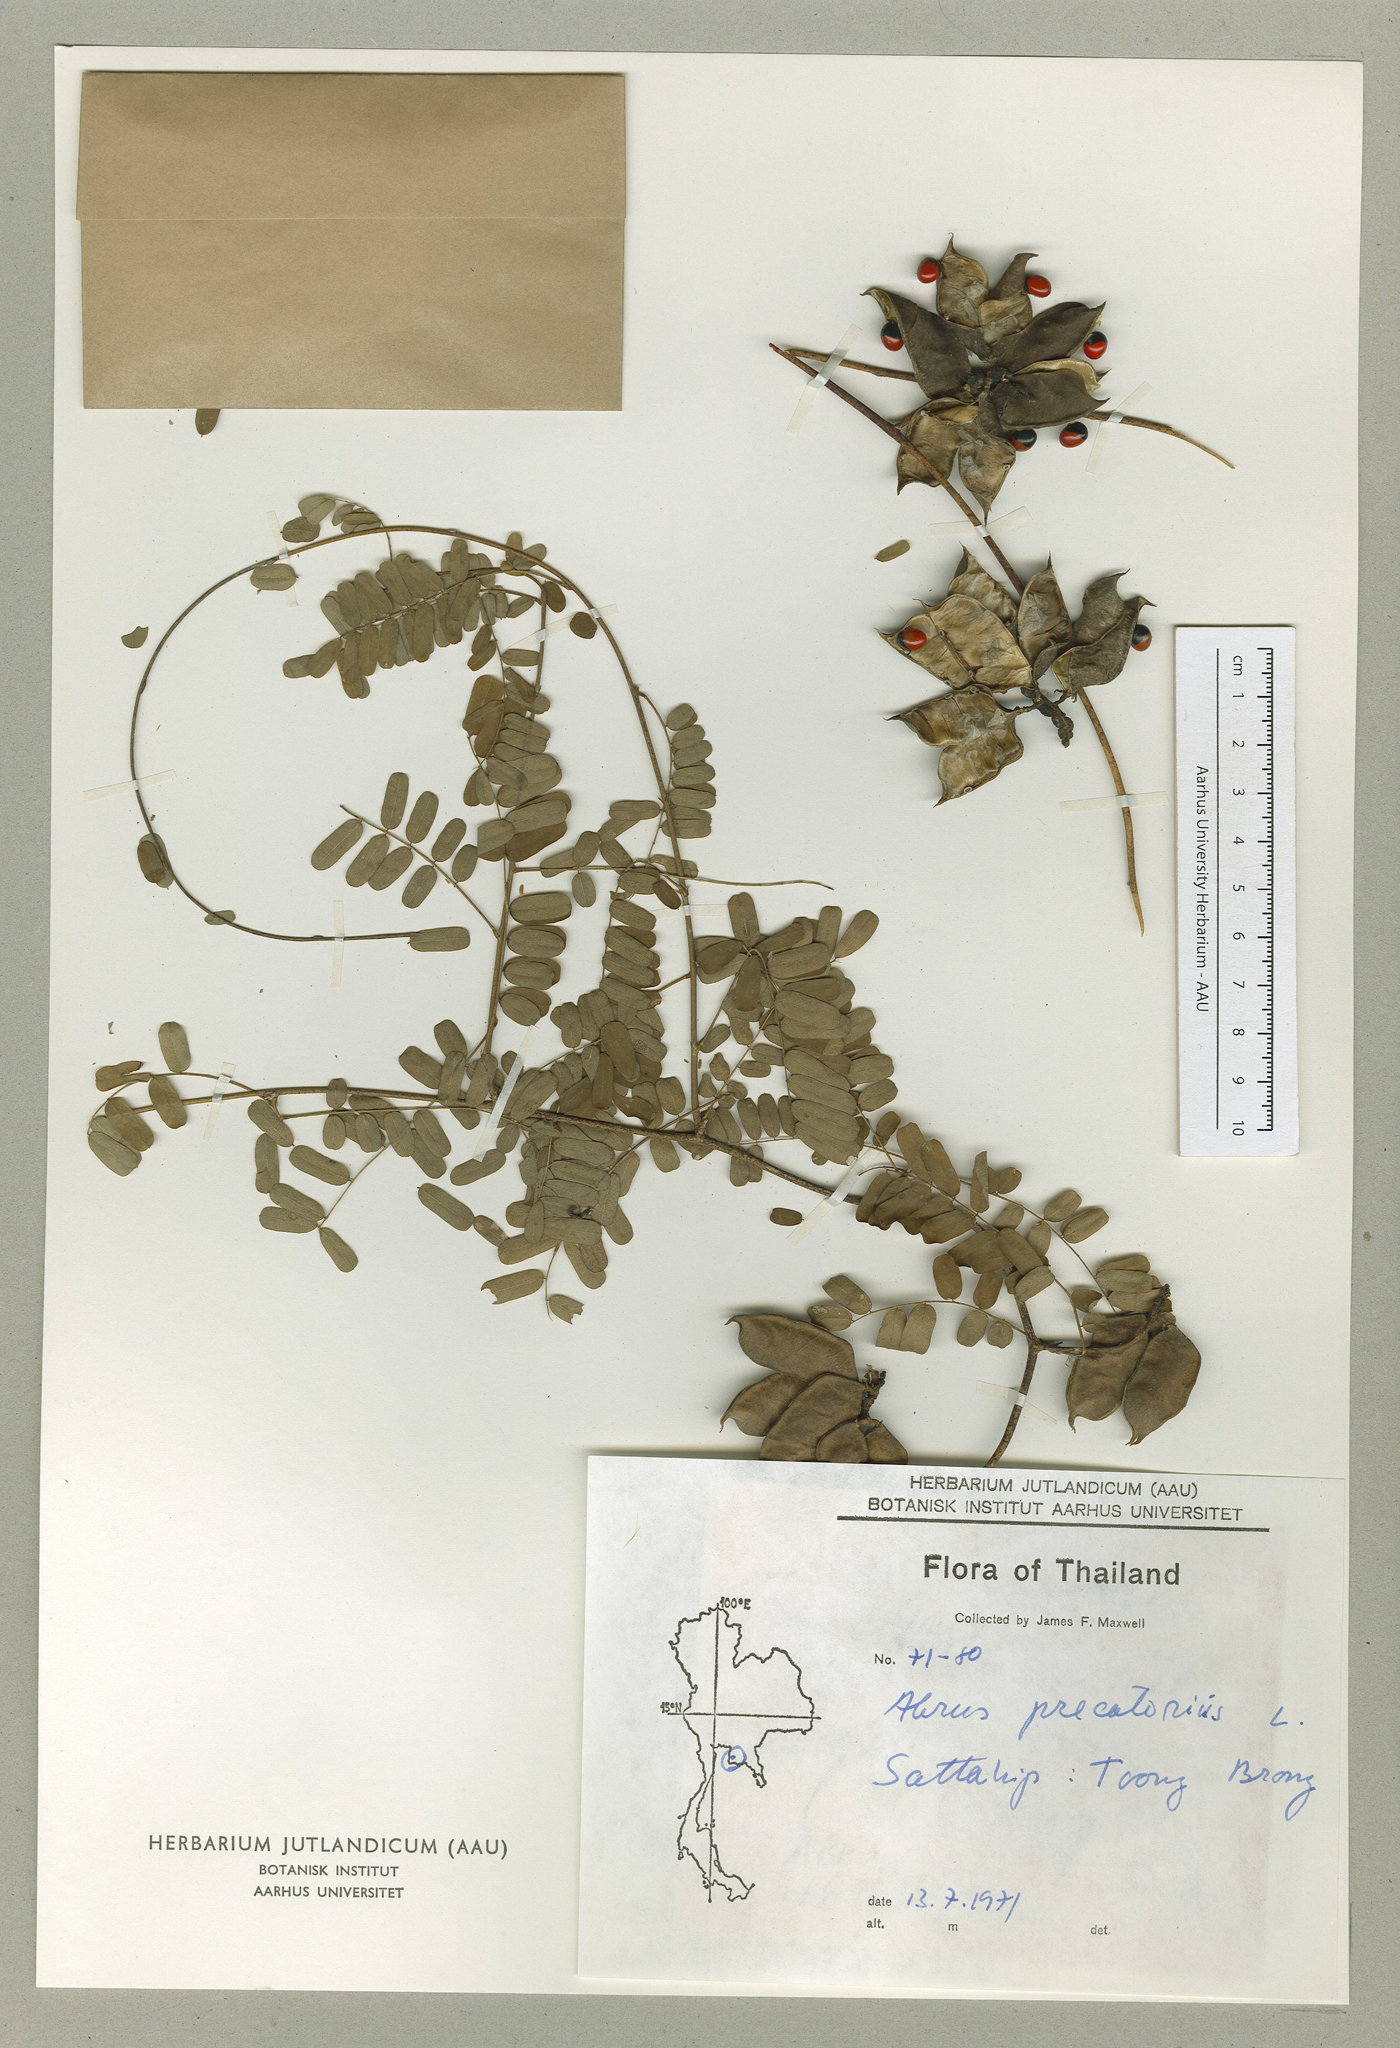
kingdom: Plantae
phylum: Tracheophyta
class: Magnoliopsida
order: Fabales
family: Fabaceae
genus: Abrus
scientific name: Abrus precatorius
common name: Rosarypea
